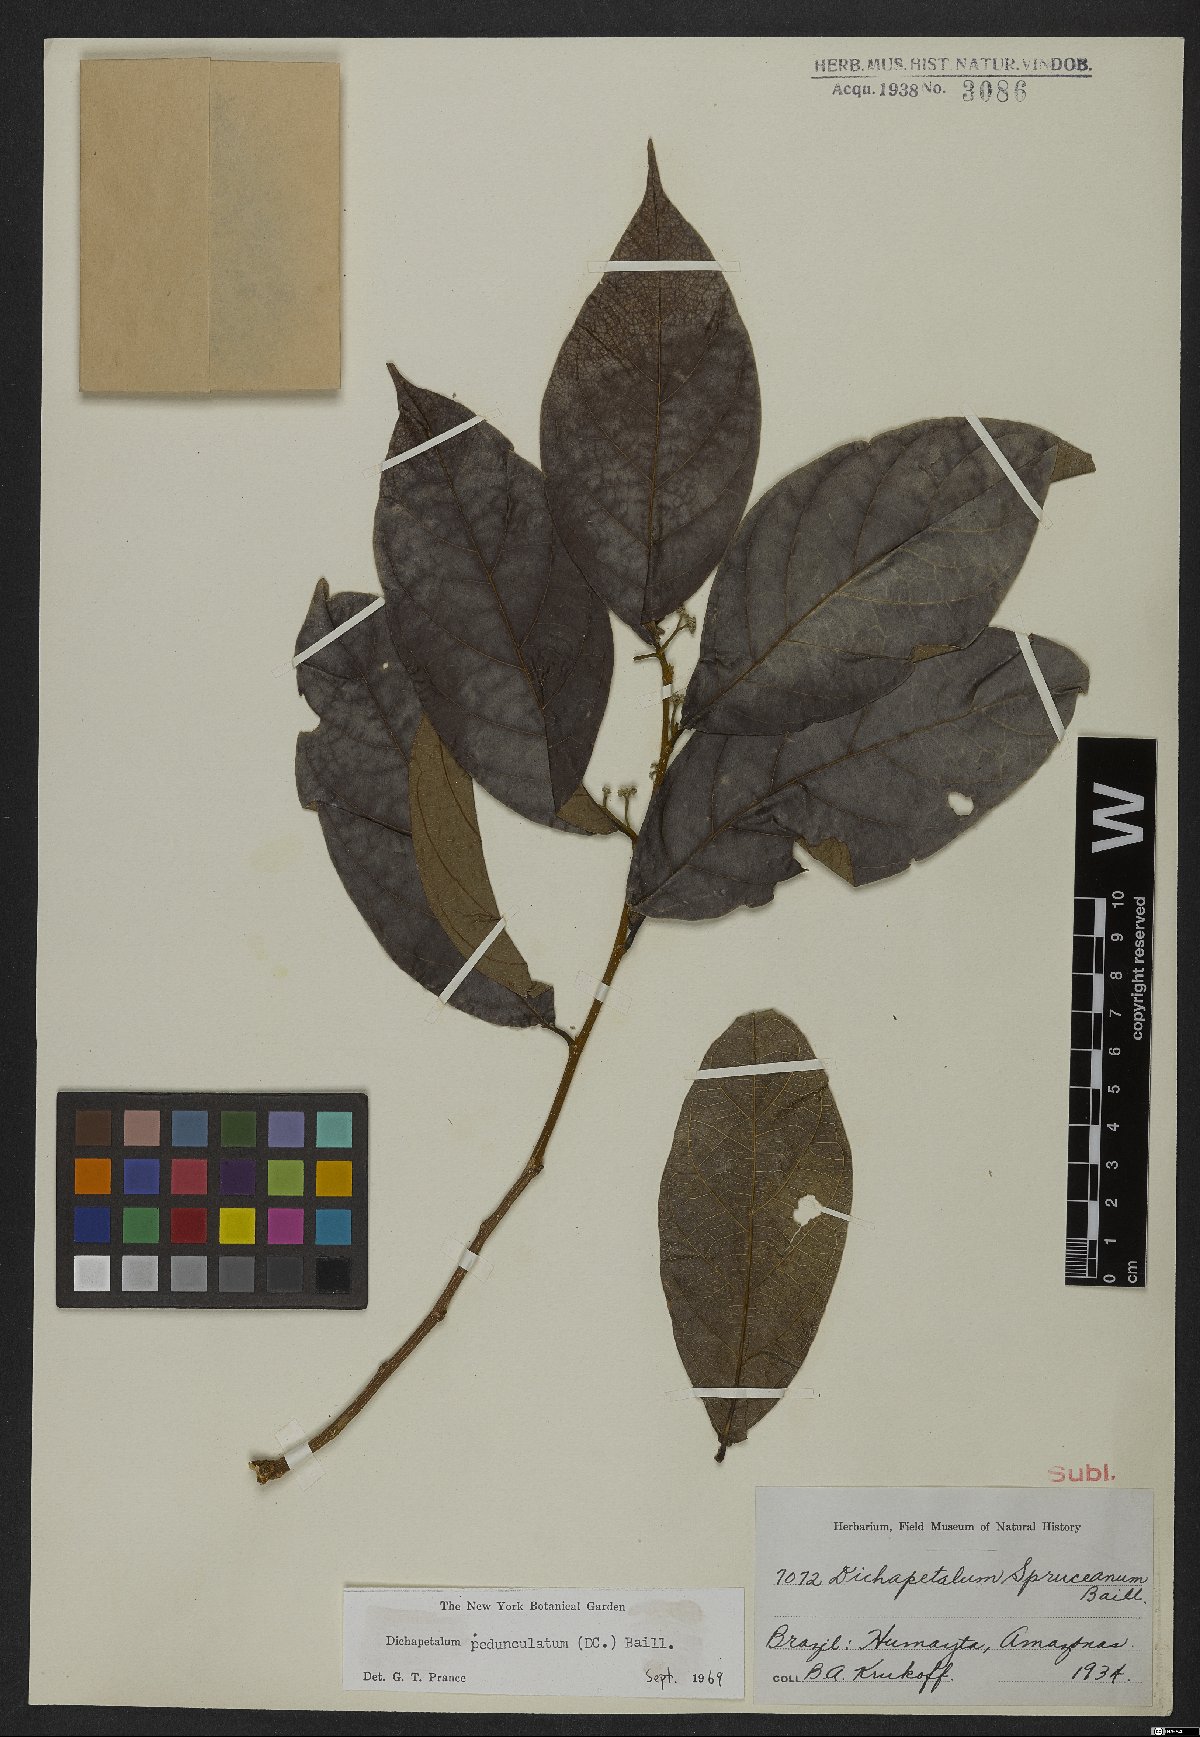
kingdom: Plantae
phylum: Tracheophyta
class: Magnoliopsida
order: Malpighiales
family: Dichapetalaceae
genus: Dichapetalum
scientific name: Dichapetalum pedunculatum
